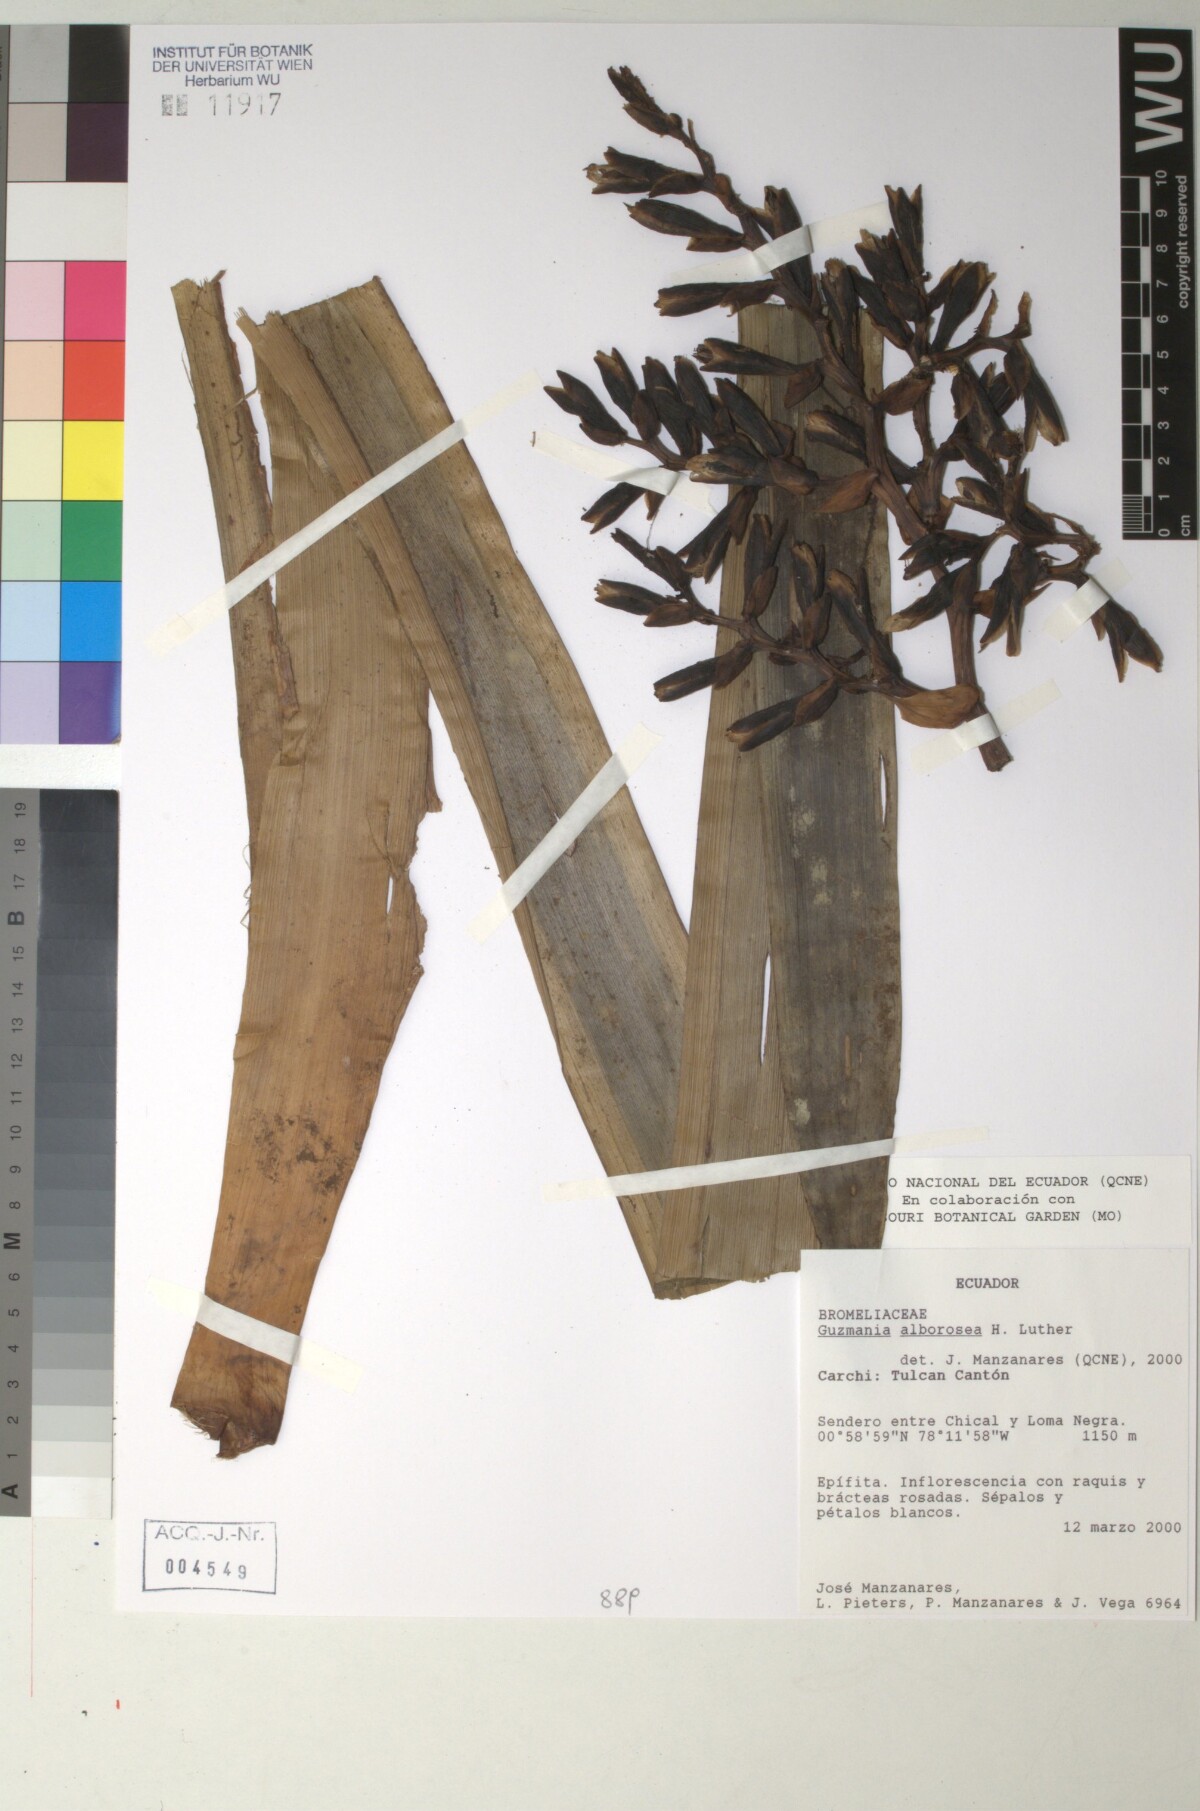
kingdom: Plantae
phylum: Tracheophyta
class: Liliopsida
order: Poales
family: Bromeliaceae
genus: Guzmania
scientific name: Guzmania alborosea
